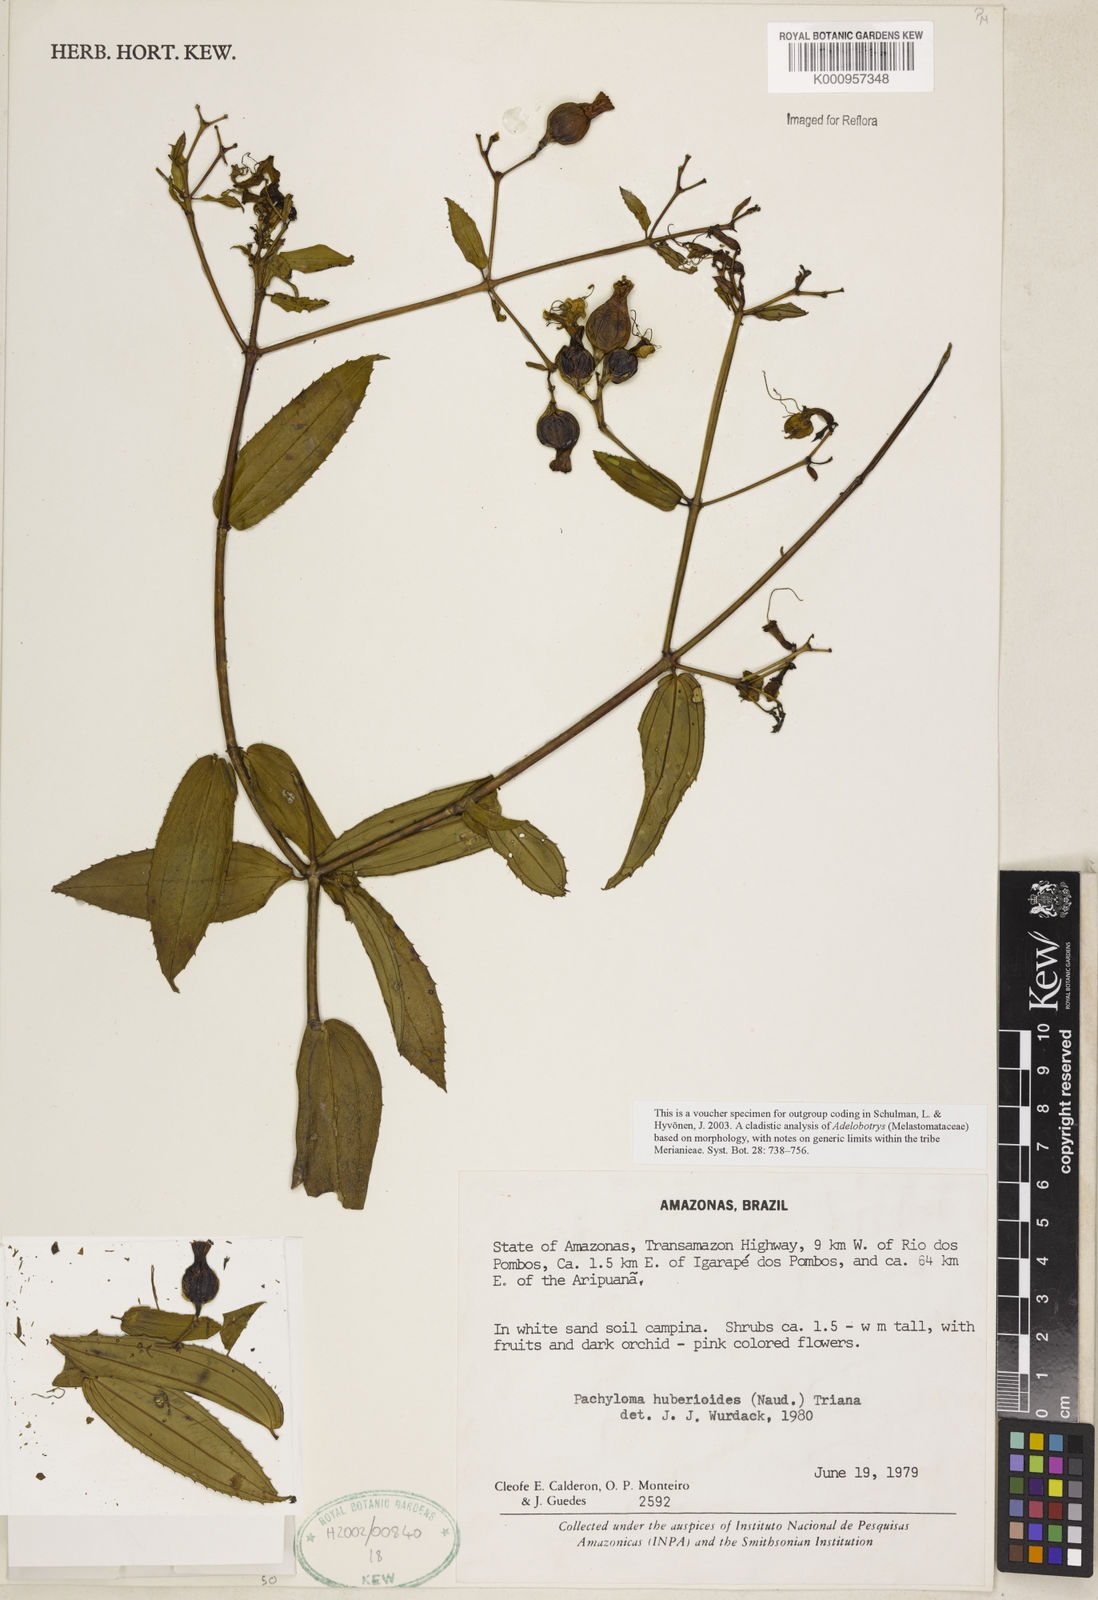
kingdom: Plantae
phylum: Tracheophyta
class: Magnoliopsida
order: Myrtales
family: Melastomataceae
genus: Pachyloma
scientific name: Pachyloma
